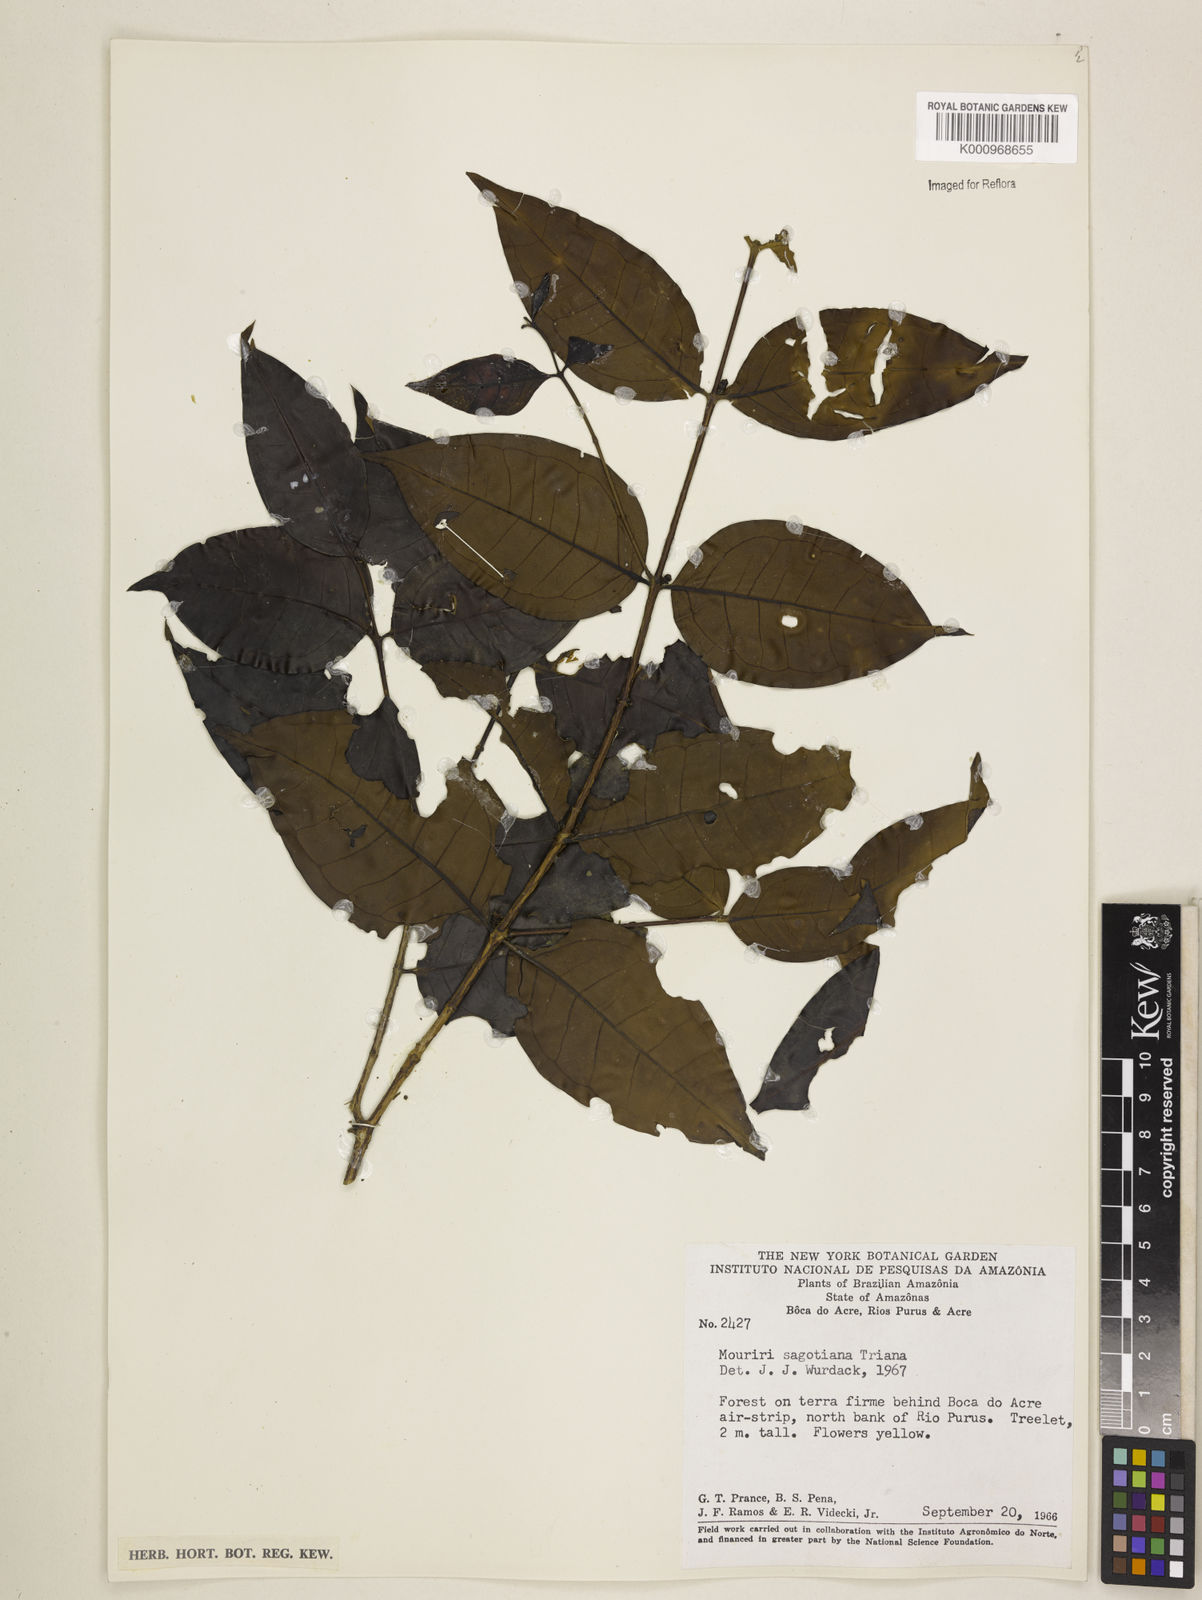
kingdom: Plantae
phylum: Tracheophyta
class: Magnoliopsida
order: Myrtales
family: Melastomataceae
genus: Mouriri
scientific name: Mouriri sagotiana
